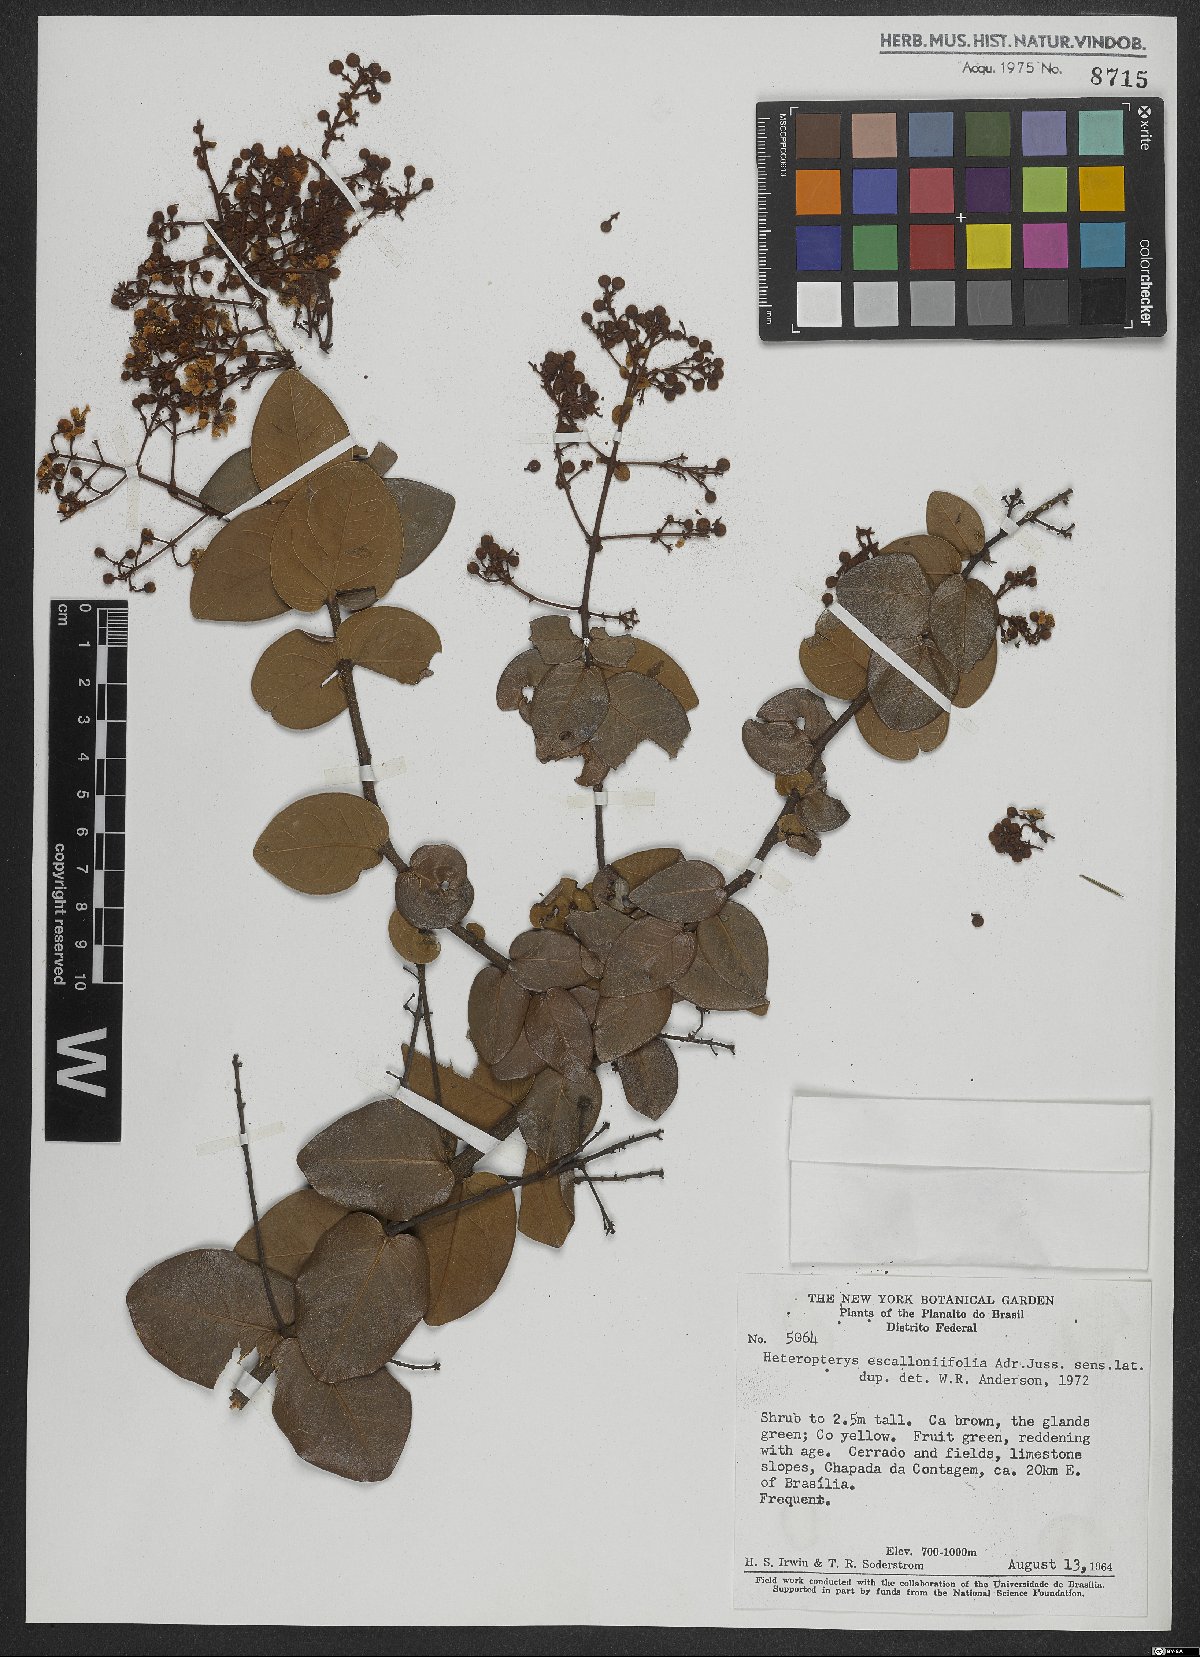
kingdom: Plantae
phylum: Tracheophyta
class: Magnoliopsida
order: Malpighiales
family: Malpighiaceae
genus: Heteropterys
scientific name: Heteropterys escalloniifolia
